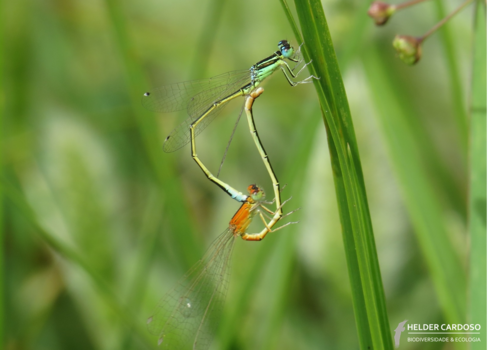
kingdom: Animalia
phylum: Arthropoda
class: Insecta
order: Odonata
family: Coenagrionidae
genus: Ischnura
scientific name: Ischnura pumilio
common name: Scarce blue-tailed damselfly
